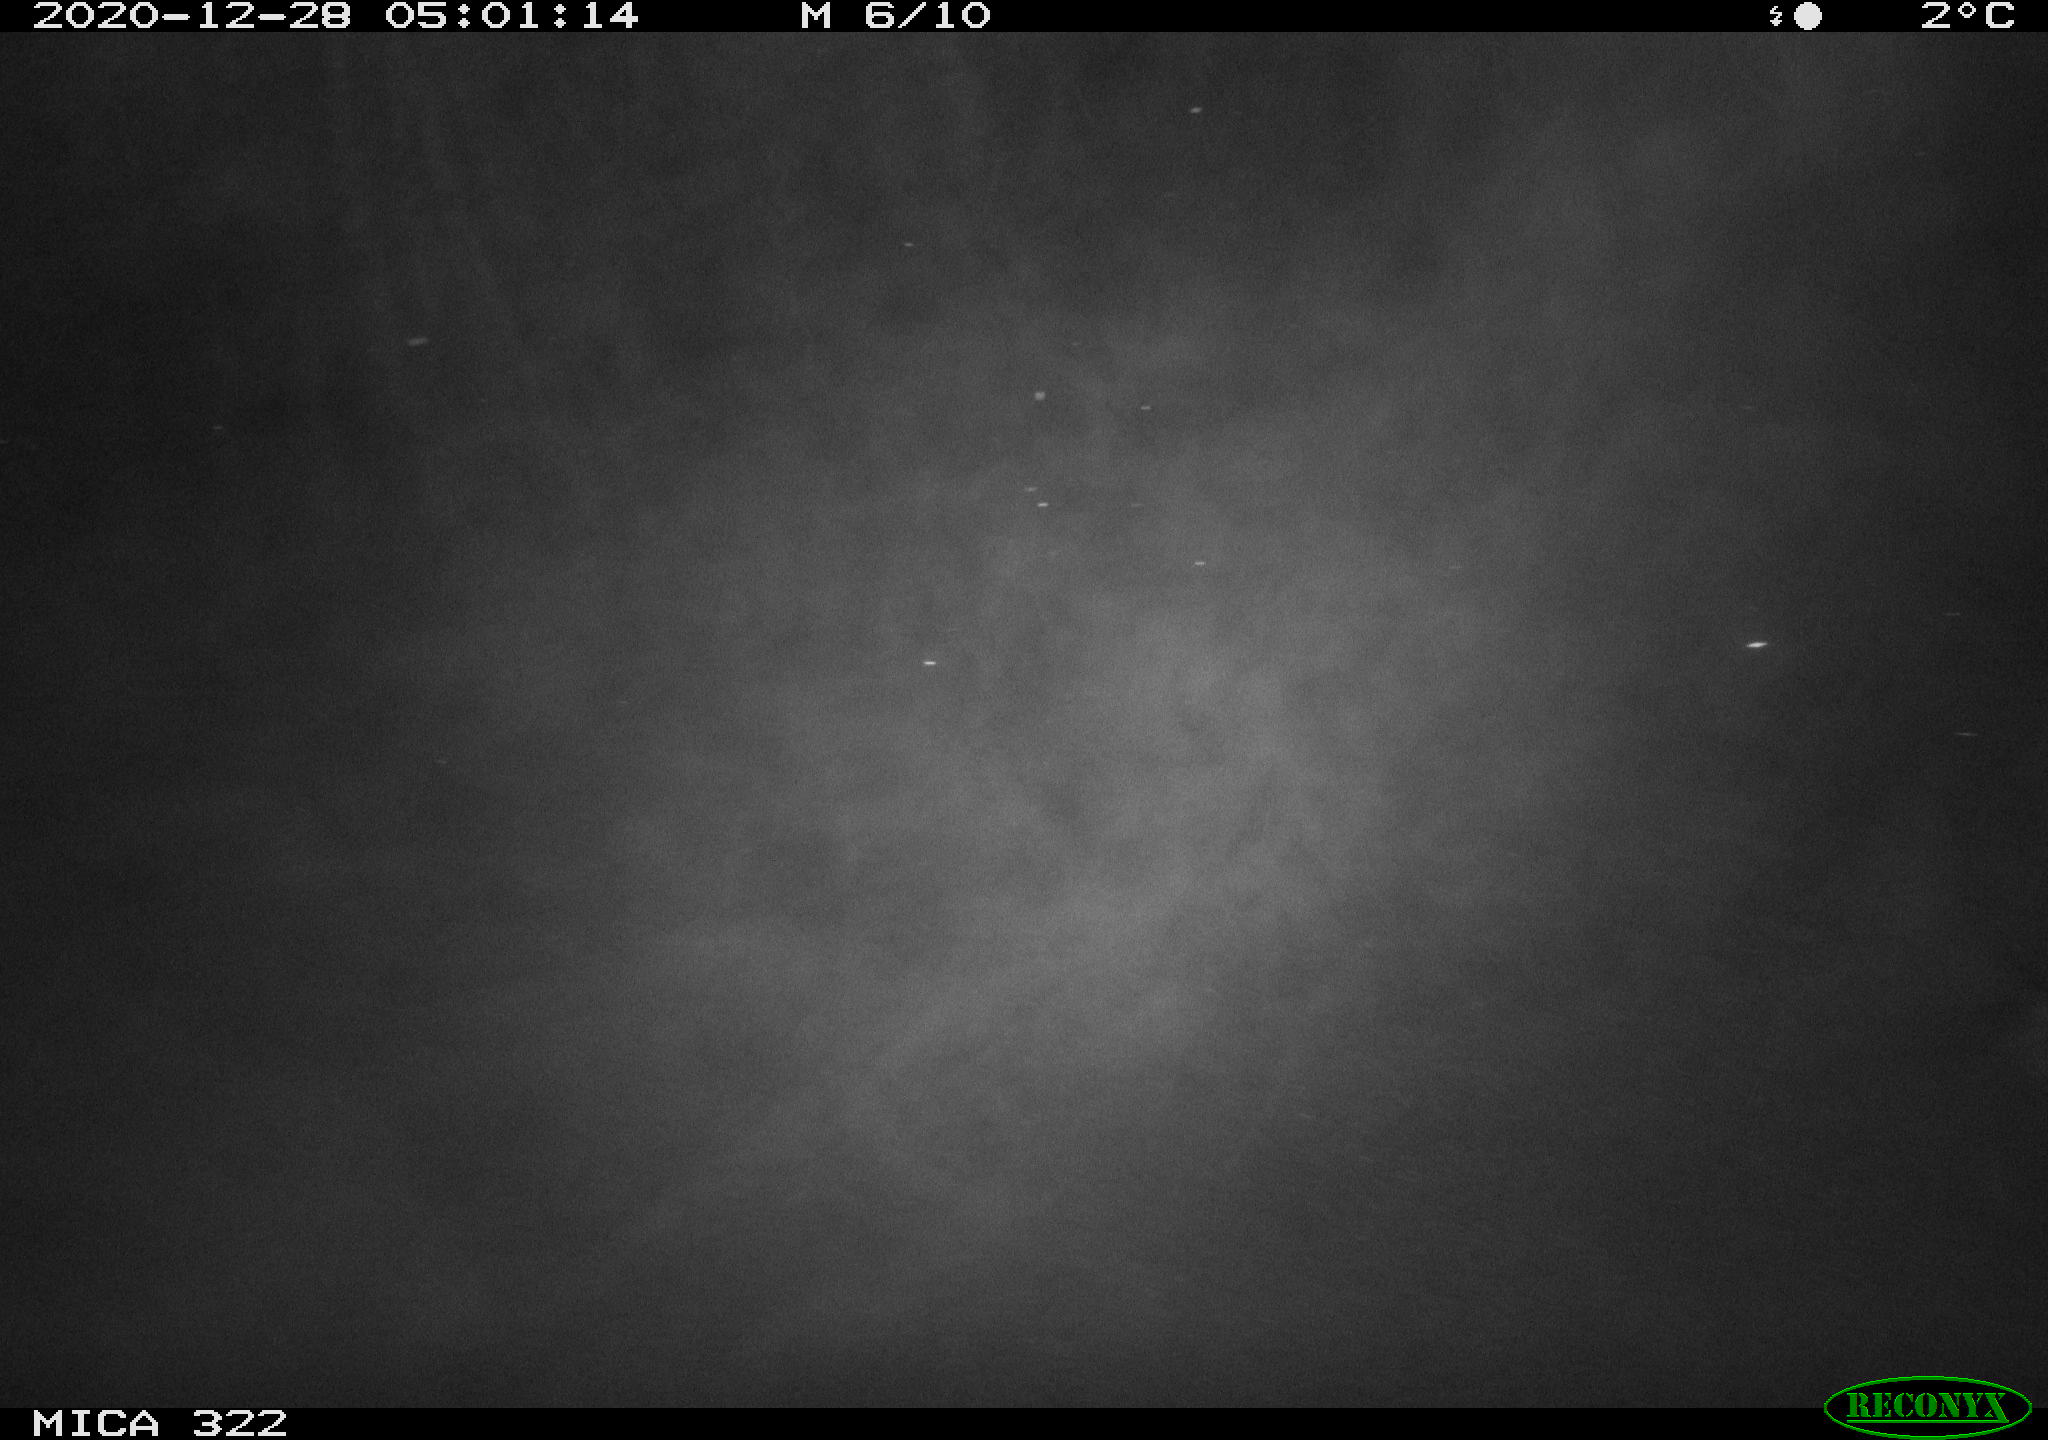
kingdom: Animalia
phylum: Chordata
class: Mammalia
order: Rodentia
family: Muridae
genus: Rattus
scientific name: Rattus norvegicus
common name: Brown rat
